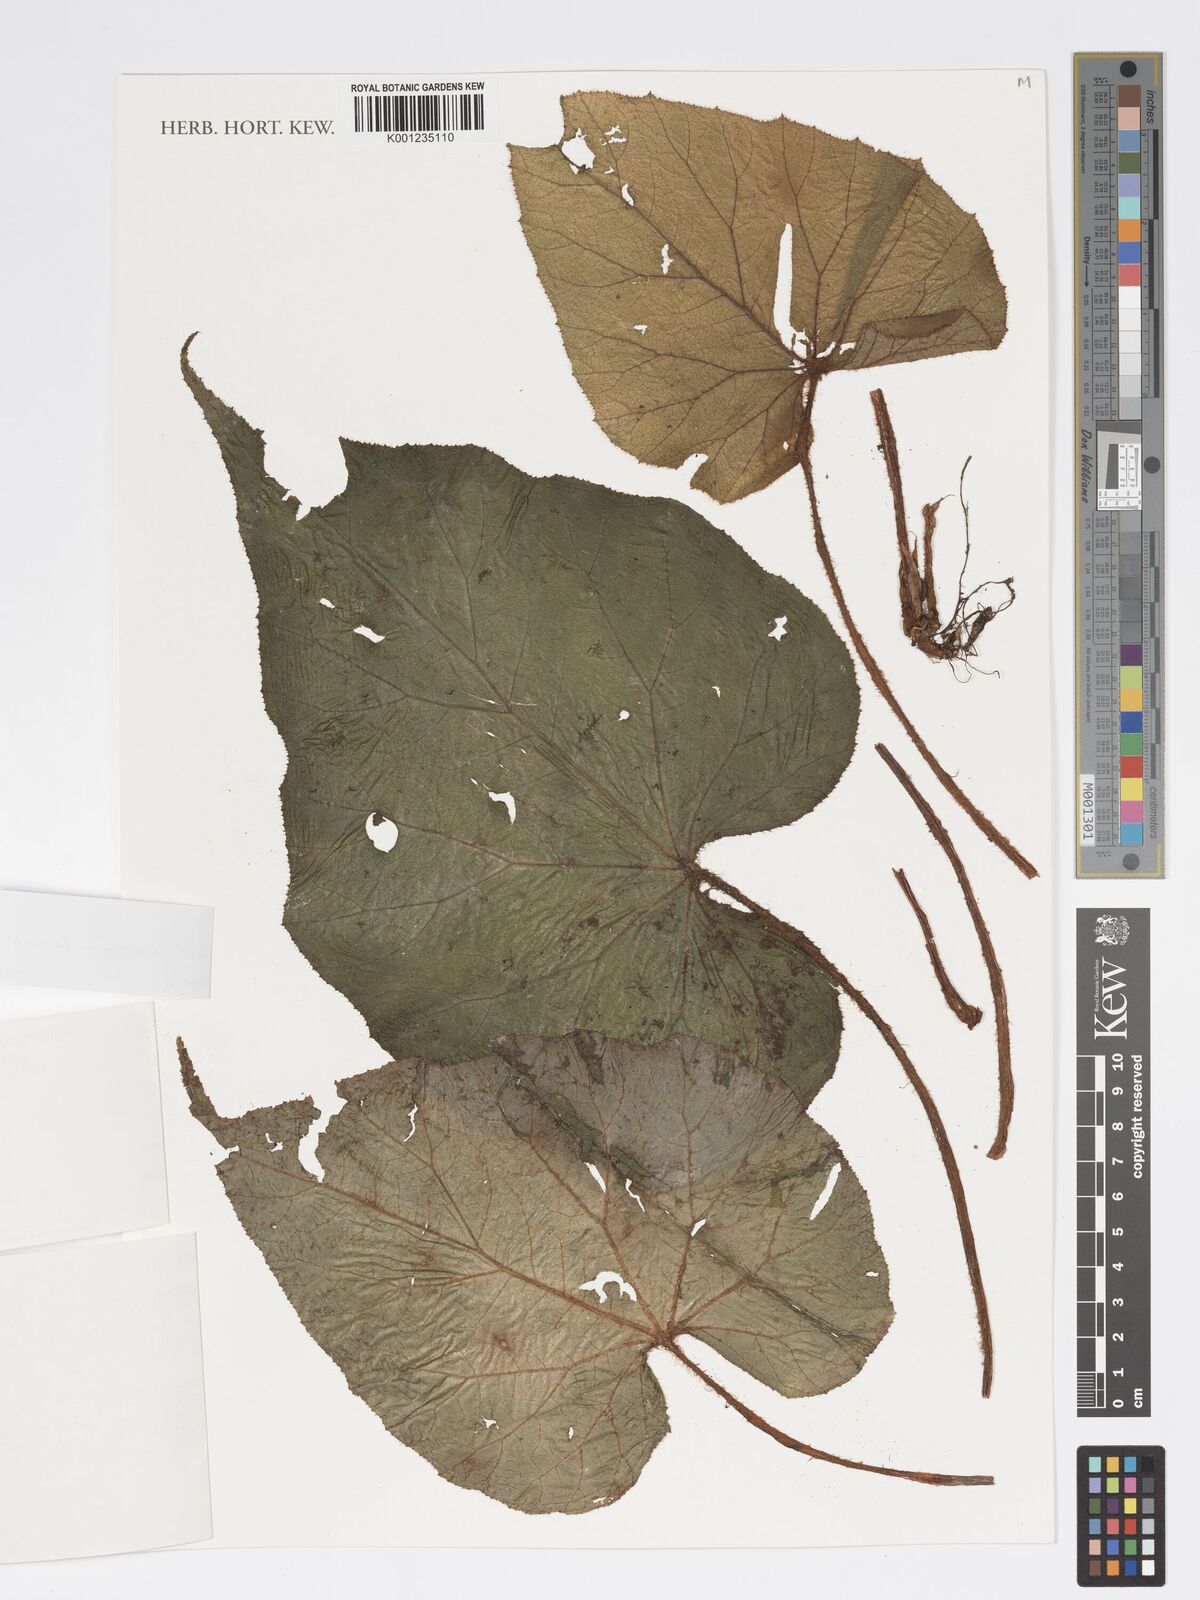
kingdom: Plantae
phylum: Tracheophyta
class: Magnoliopsida
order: Cucurbitales
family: Begoniaceae
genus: Begonia
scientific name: Begonia chlorocarpa
